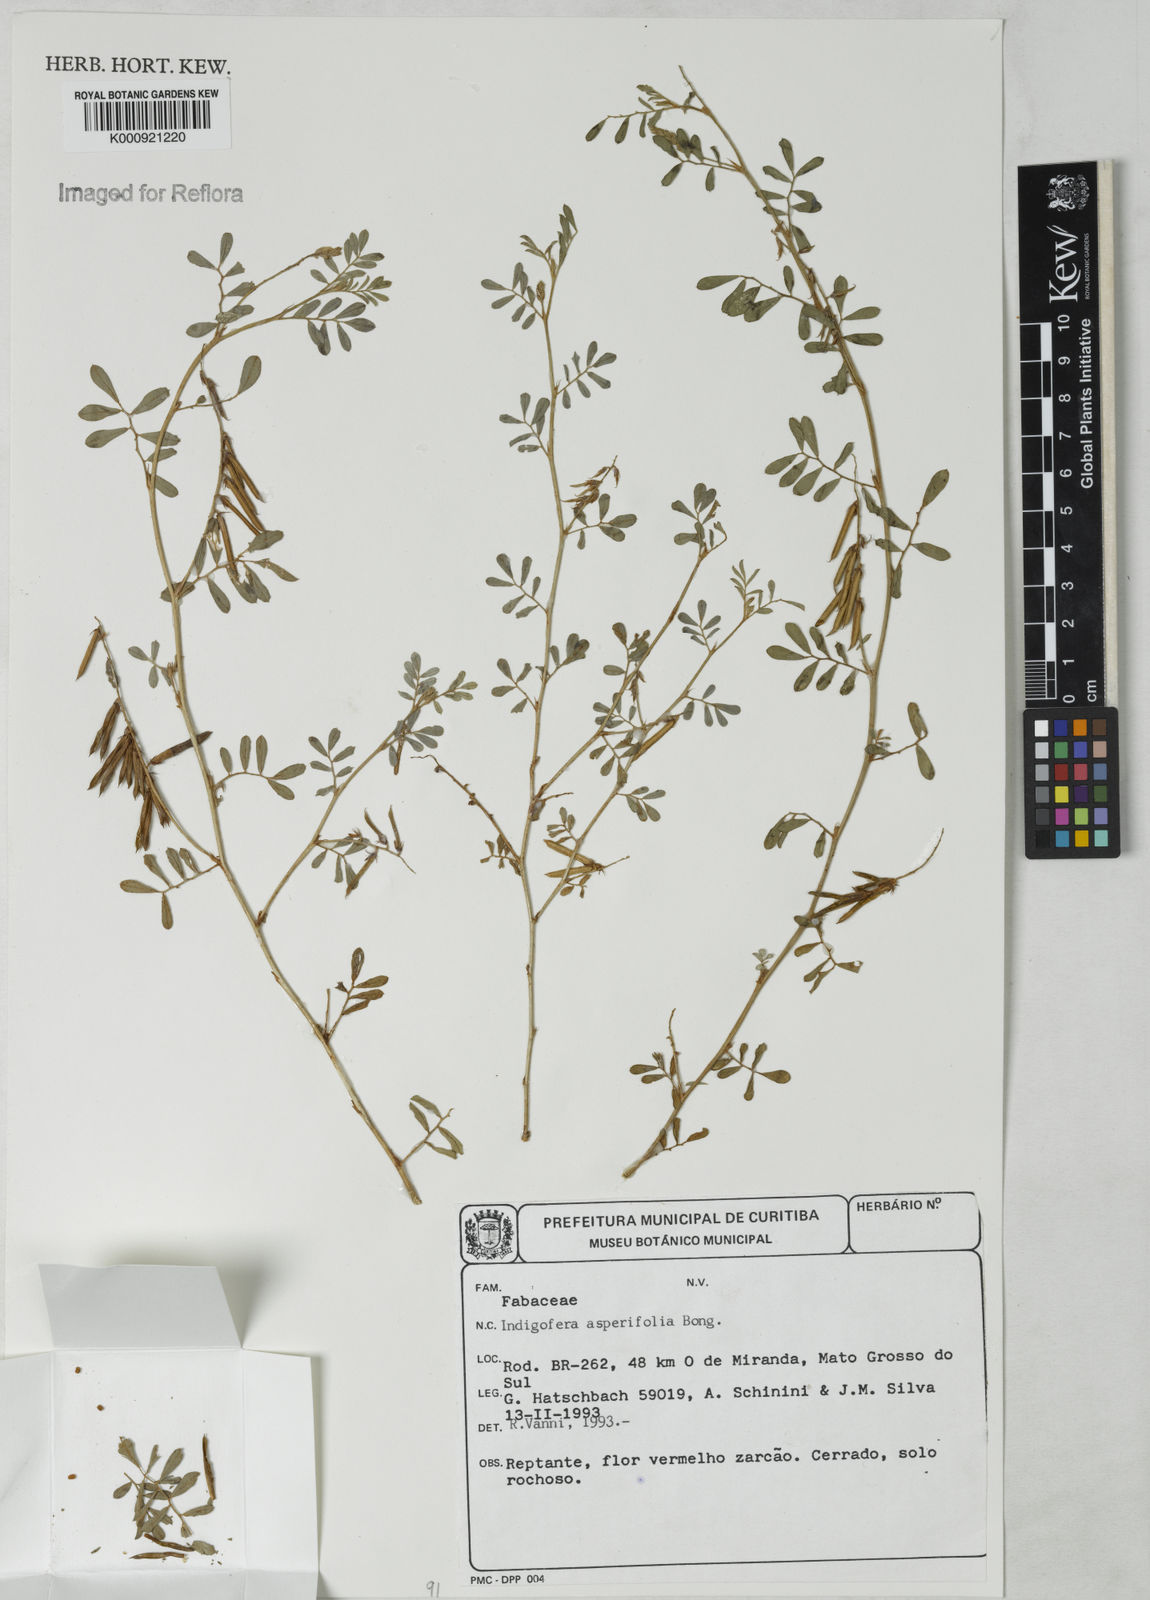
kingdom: Plantae
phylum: Tracheophyta
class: Magnoliopsida
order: Fabales
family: Fabaceae
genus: Indigofera
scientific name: Indigofera hendecaphylla
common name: Trailing indigo
